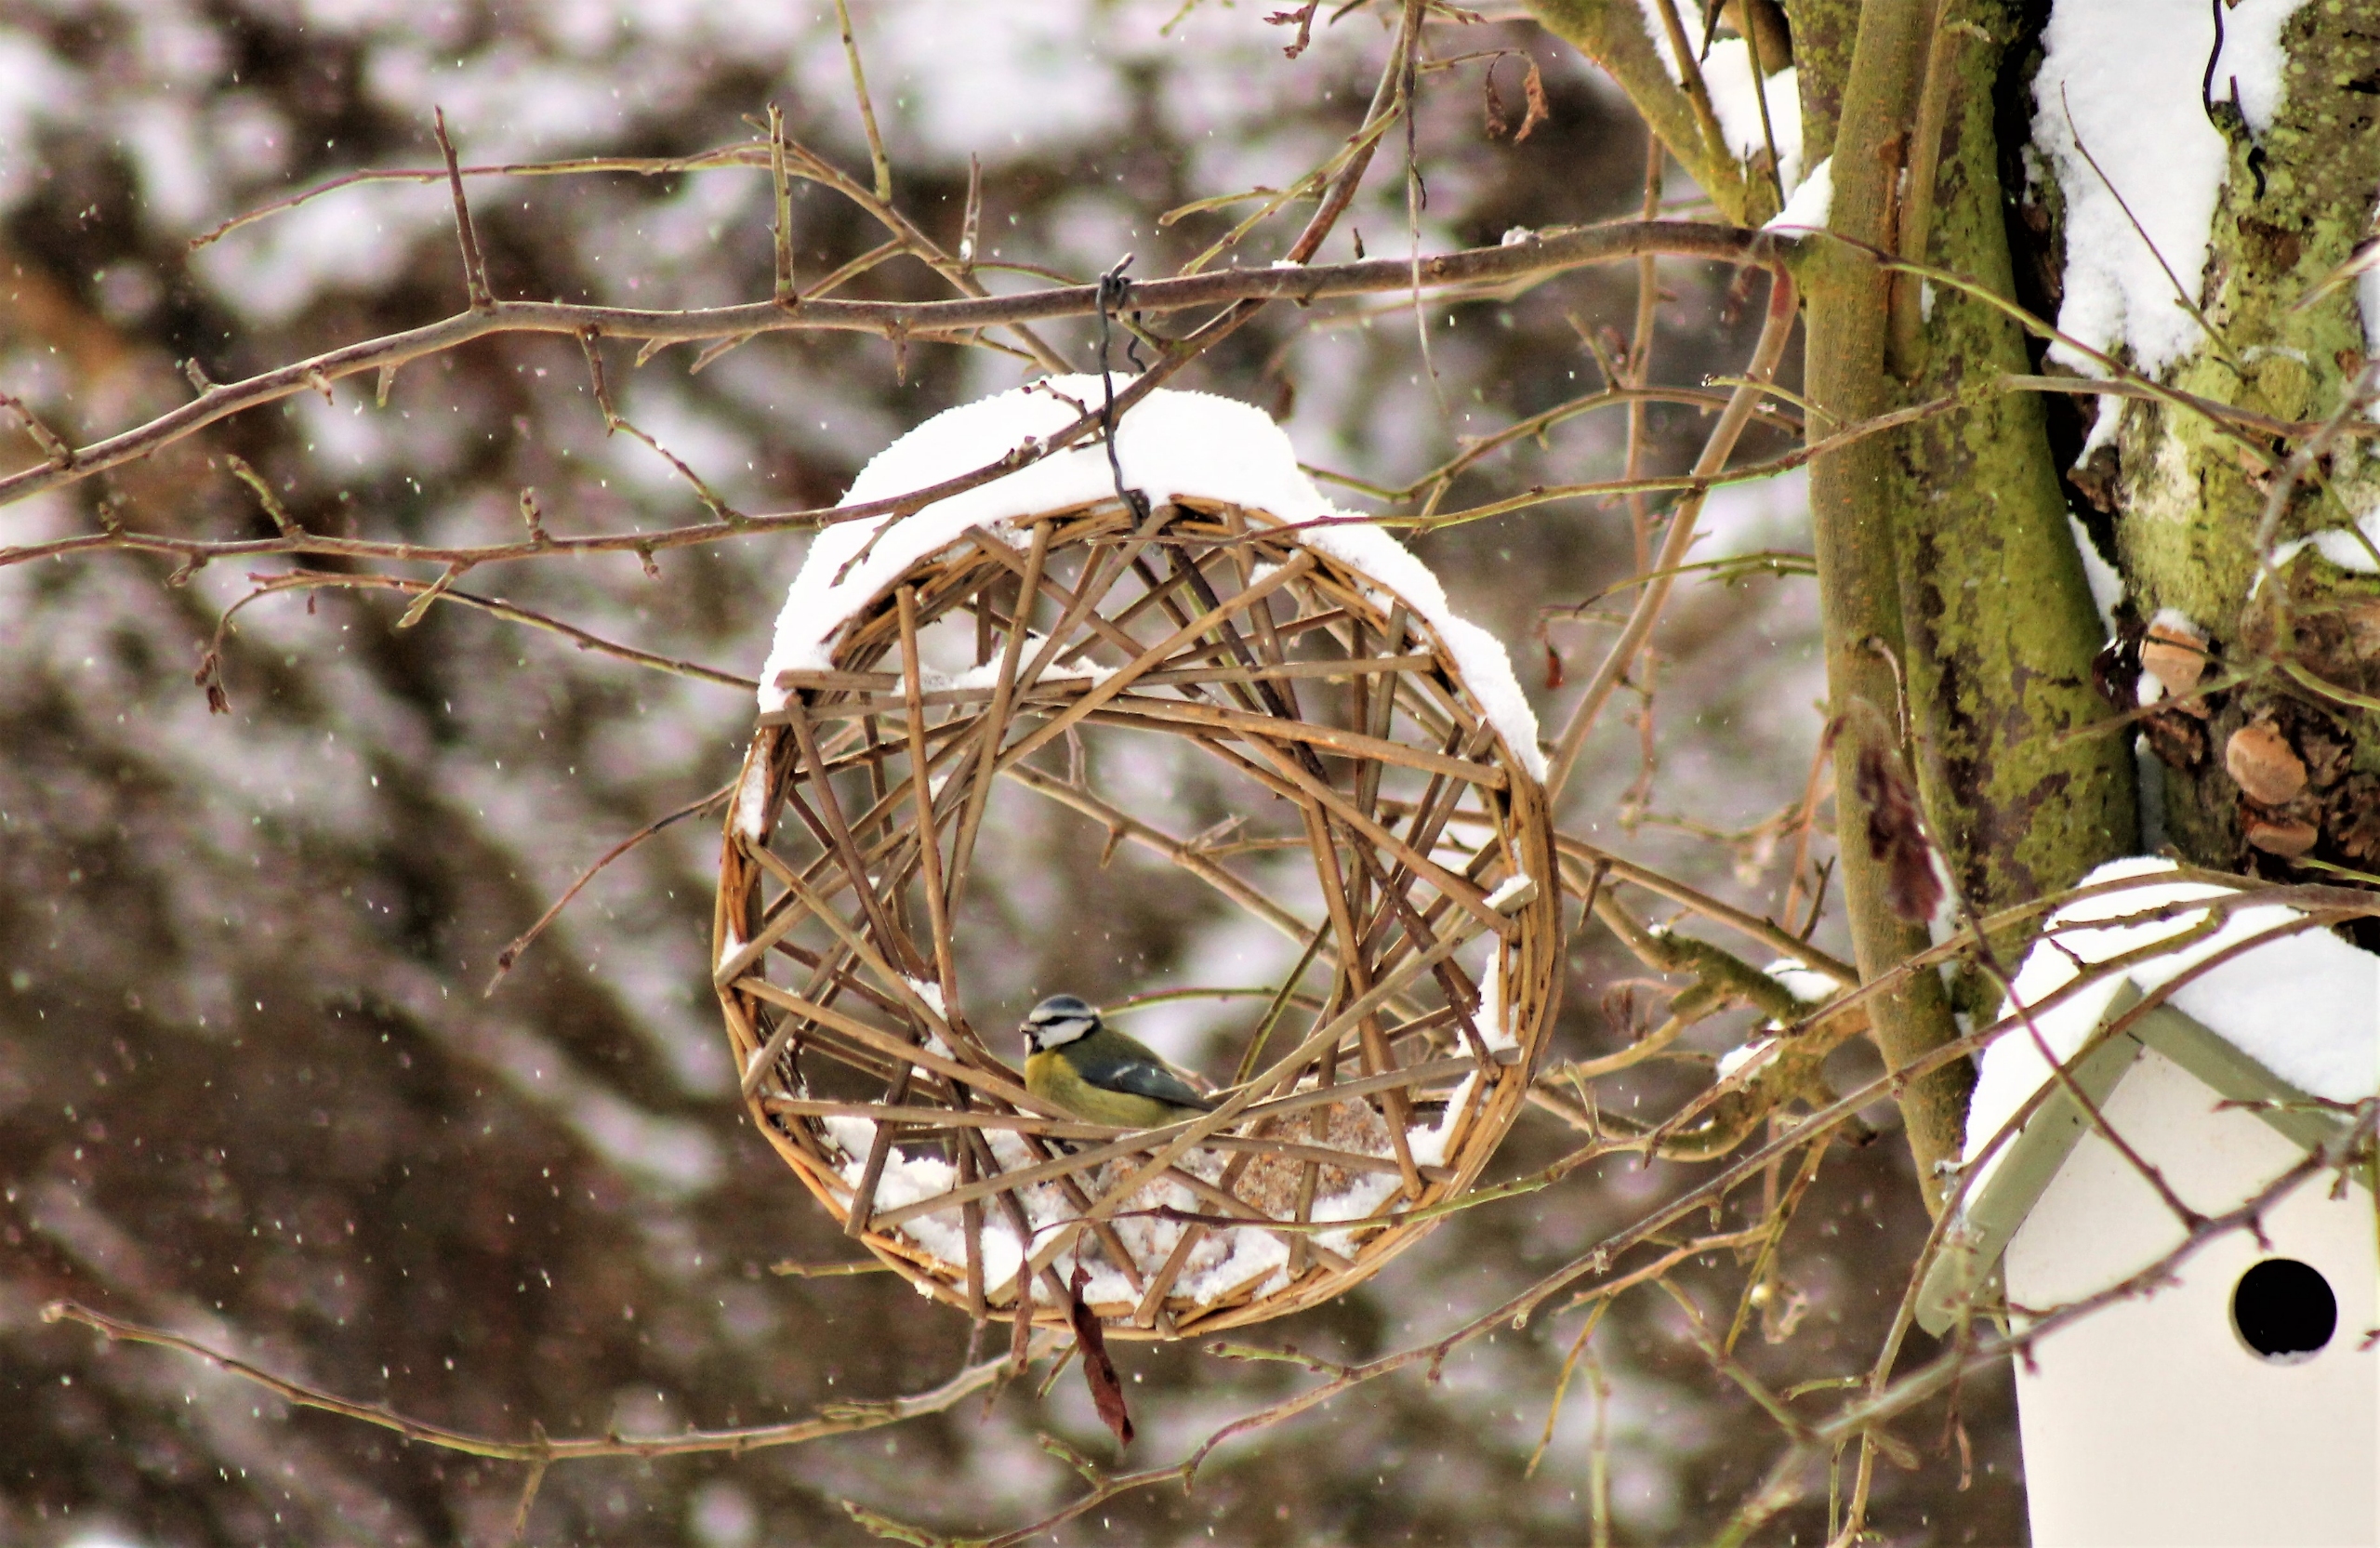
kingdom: Animalia
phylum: Chordata
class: Aves
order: Passeriformes
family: Paridae
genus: Cyanistes
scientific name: Cyanistes caeruleus
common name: Blåmejse
